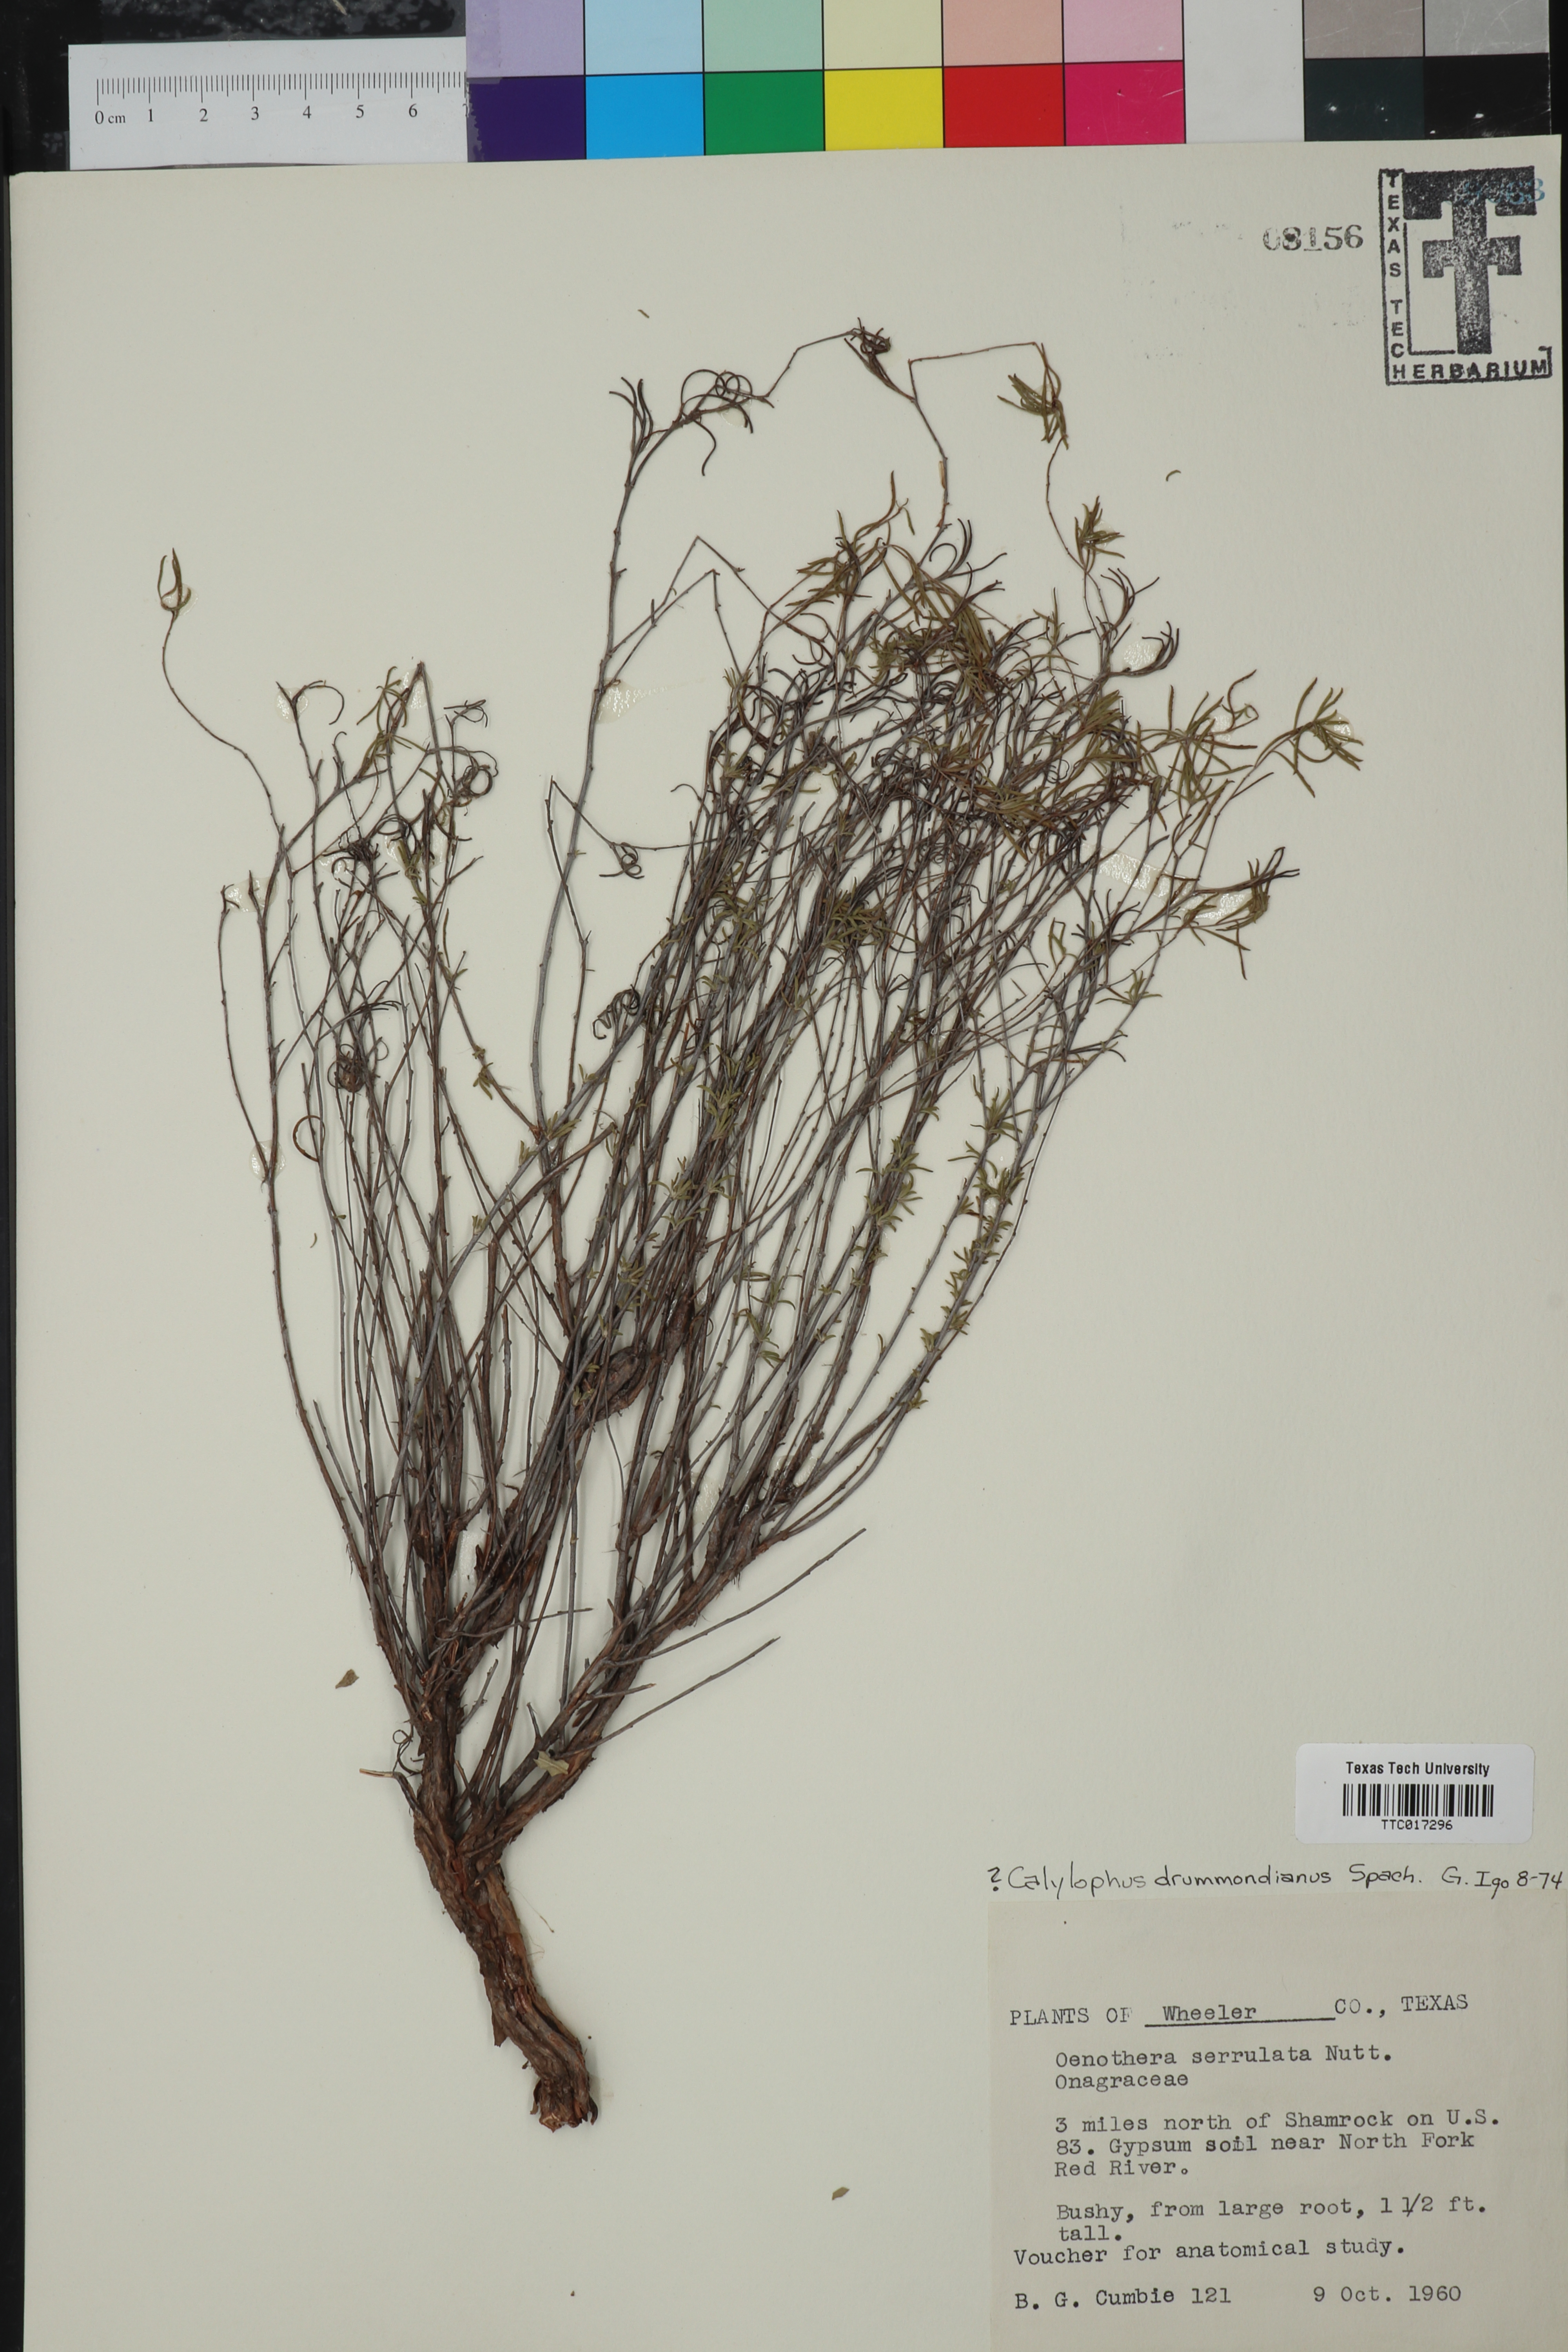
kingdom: Plantae
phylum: Tracheophyta
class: Magnoliopsida
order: Myrtales
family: Onagraceae
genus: Oenothera
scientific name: Oenothera serrulata
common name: Half-shrub calylophus
